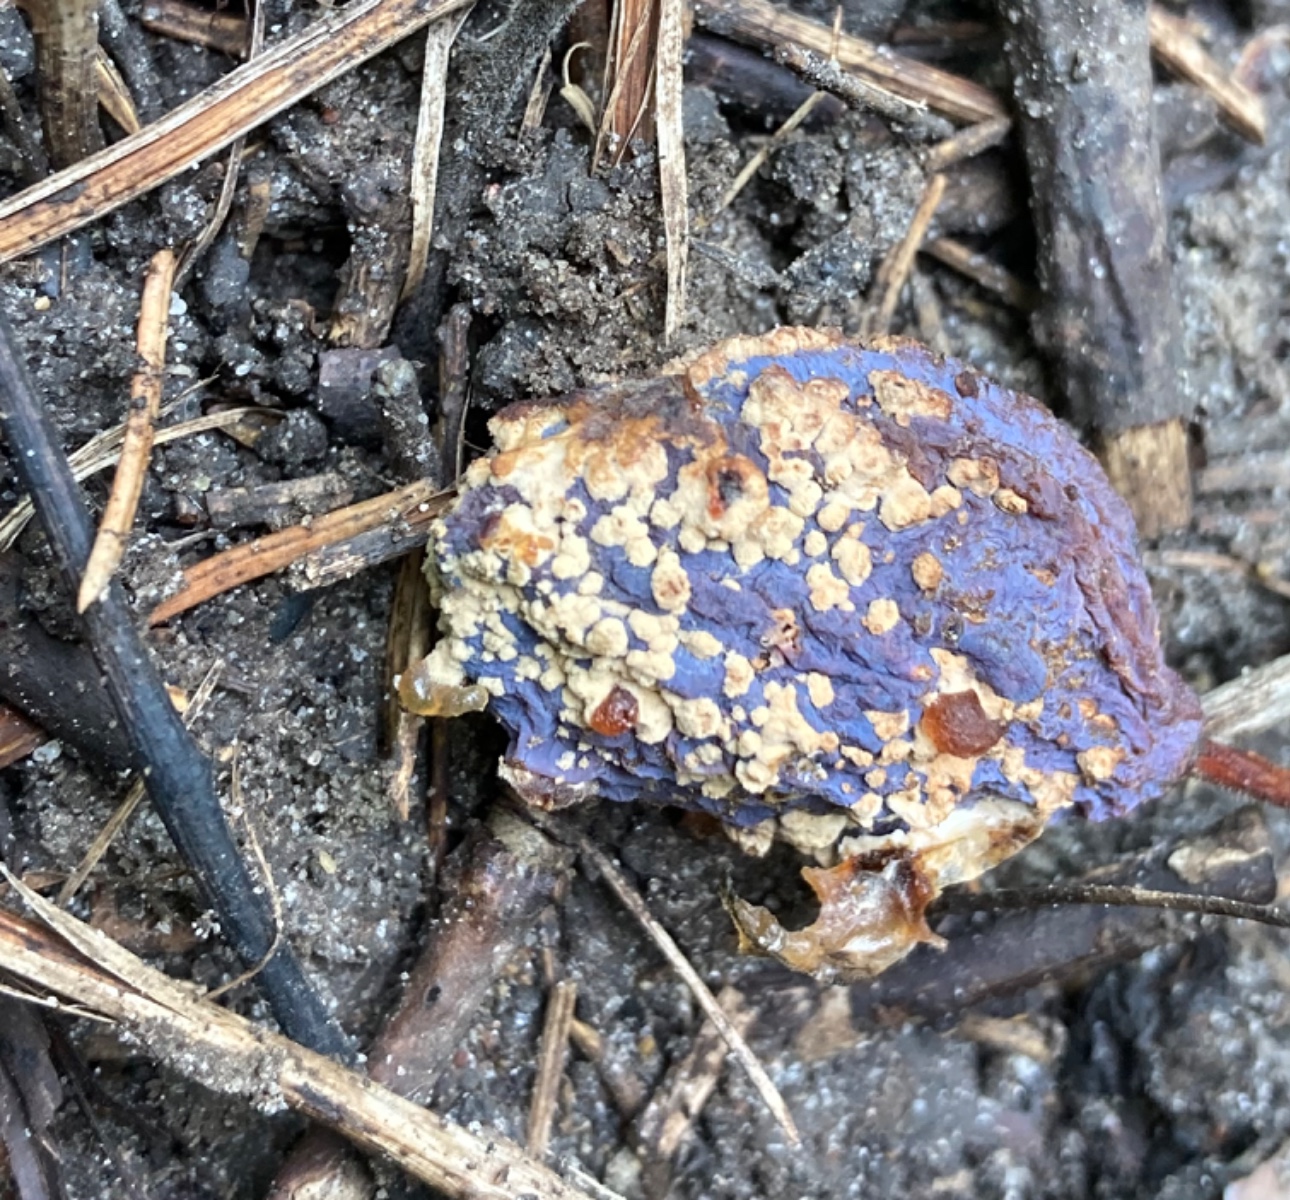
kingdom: Fungi
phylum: Ascomycota
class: Leotiomycetes
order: Helotiales
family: Sclerotiniaceae
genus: Monilinia
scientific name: Monilinia laxa
